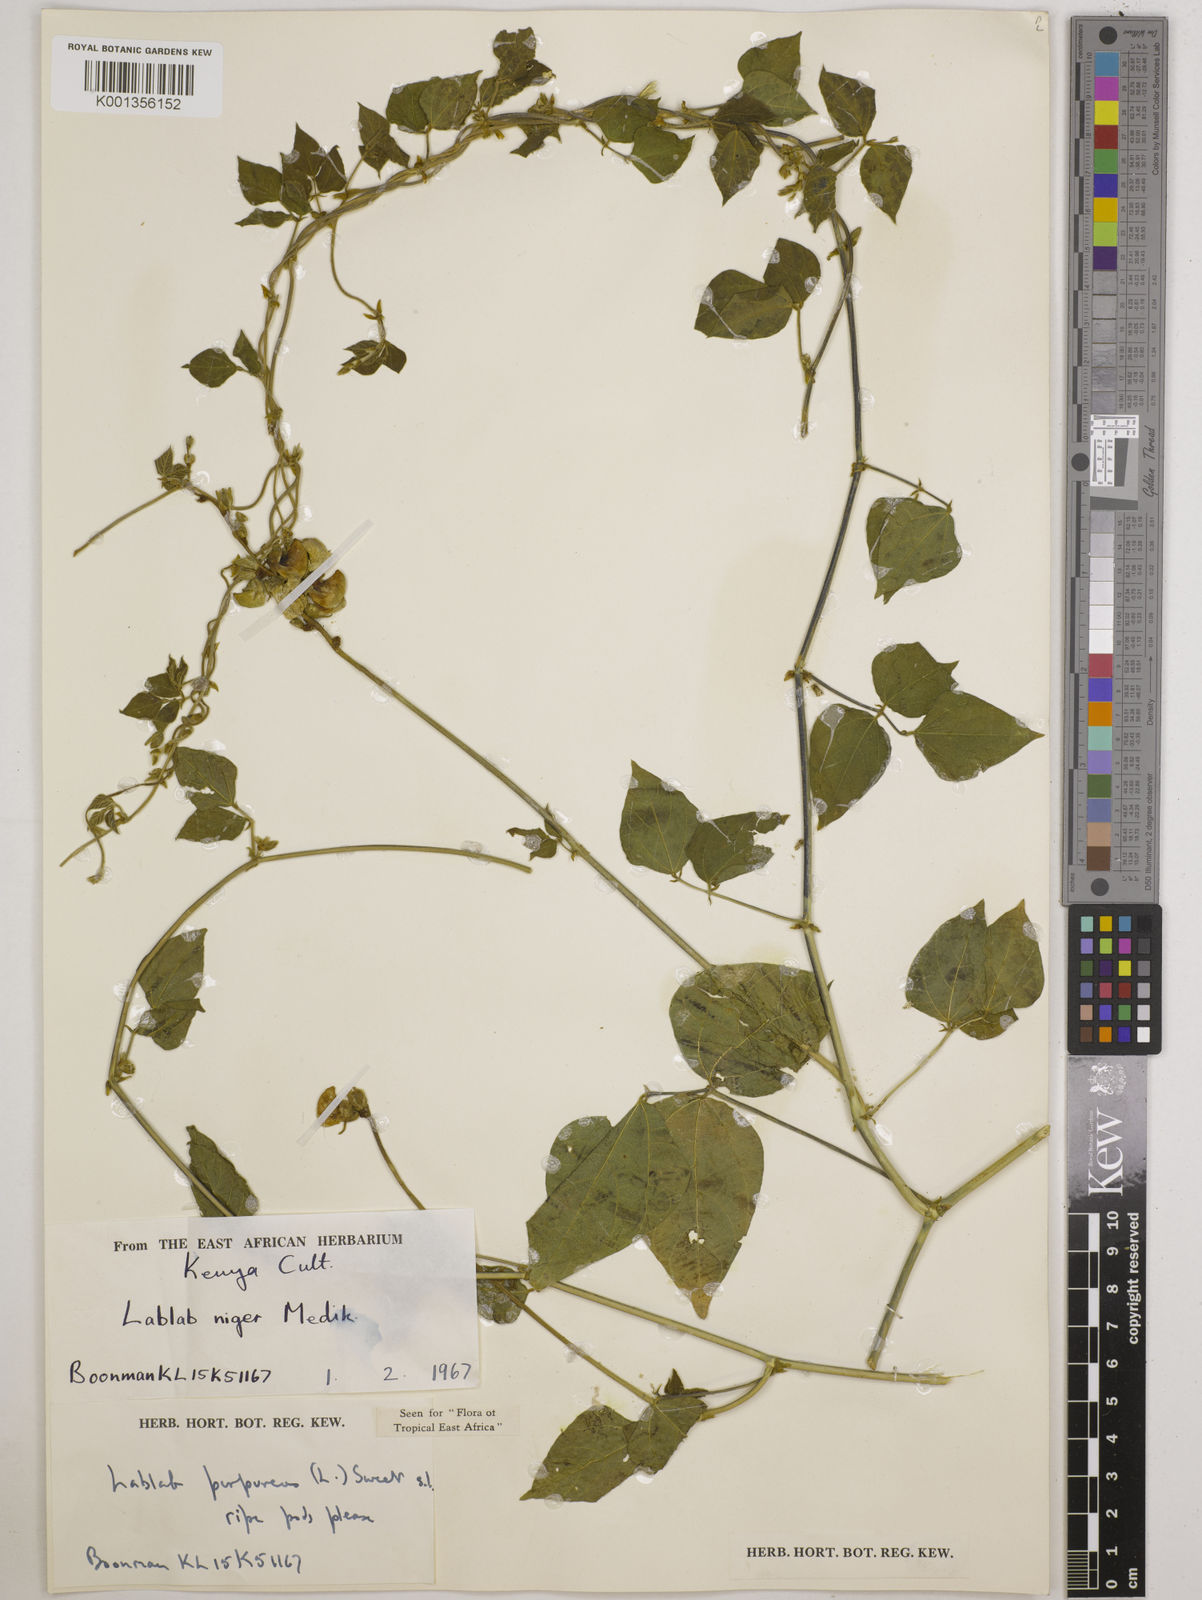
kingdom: Plantae
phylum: Tracheophyta
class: Magnoliopsida
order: Fabales
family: Fabaceae
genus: Lablab
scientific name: Lablab purpureus
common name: Lablab-bean
